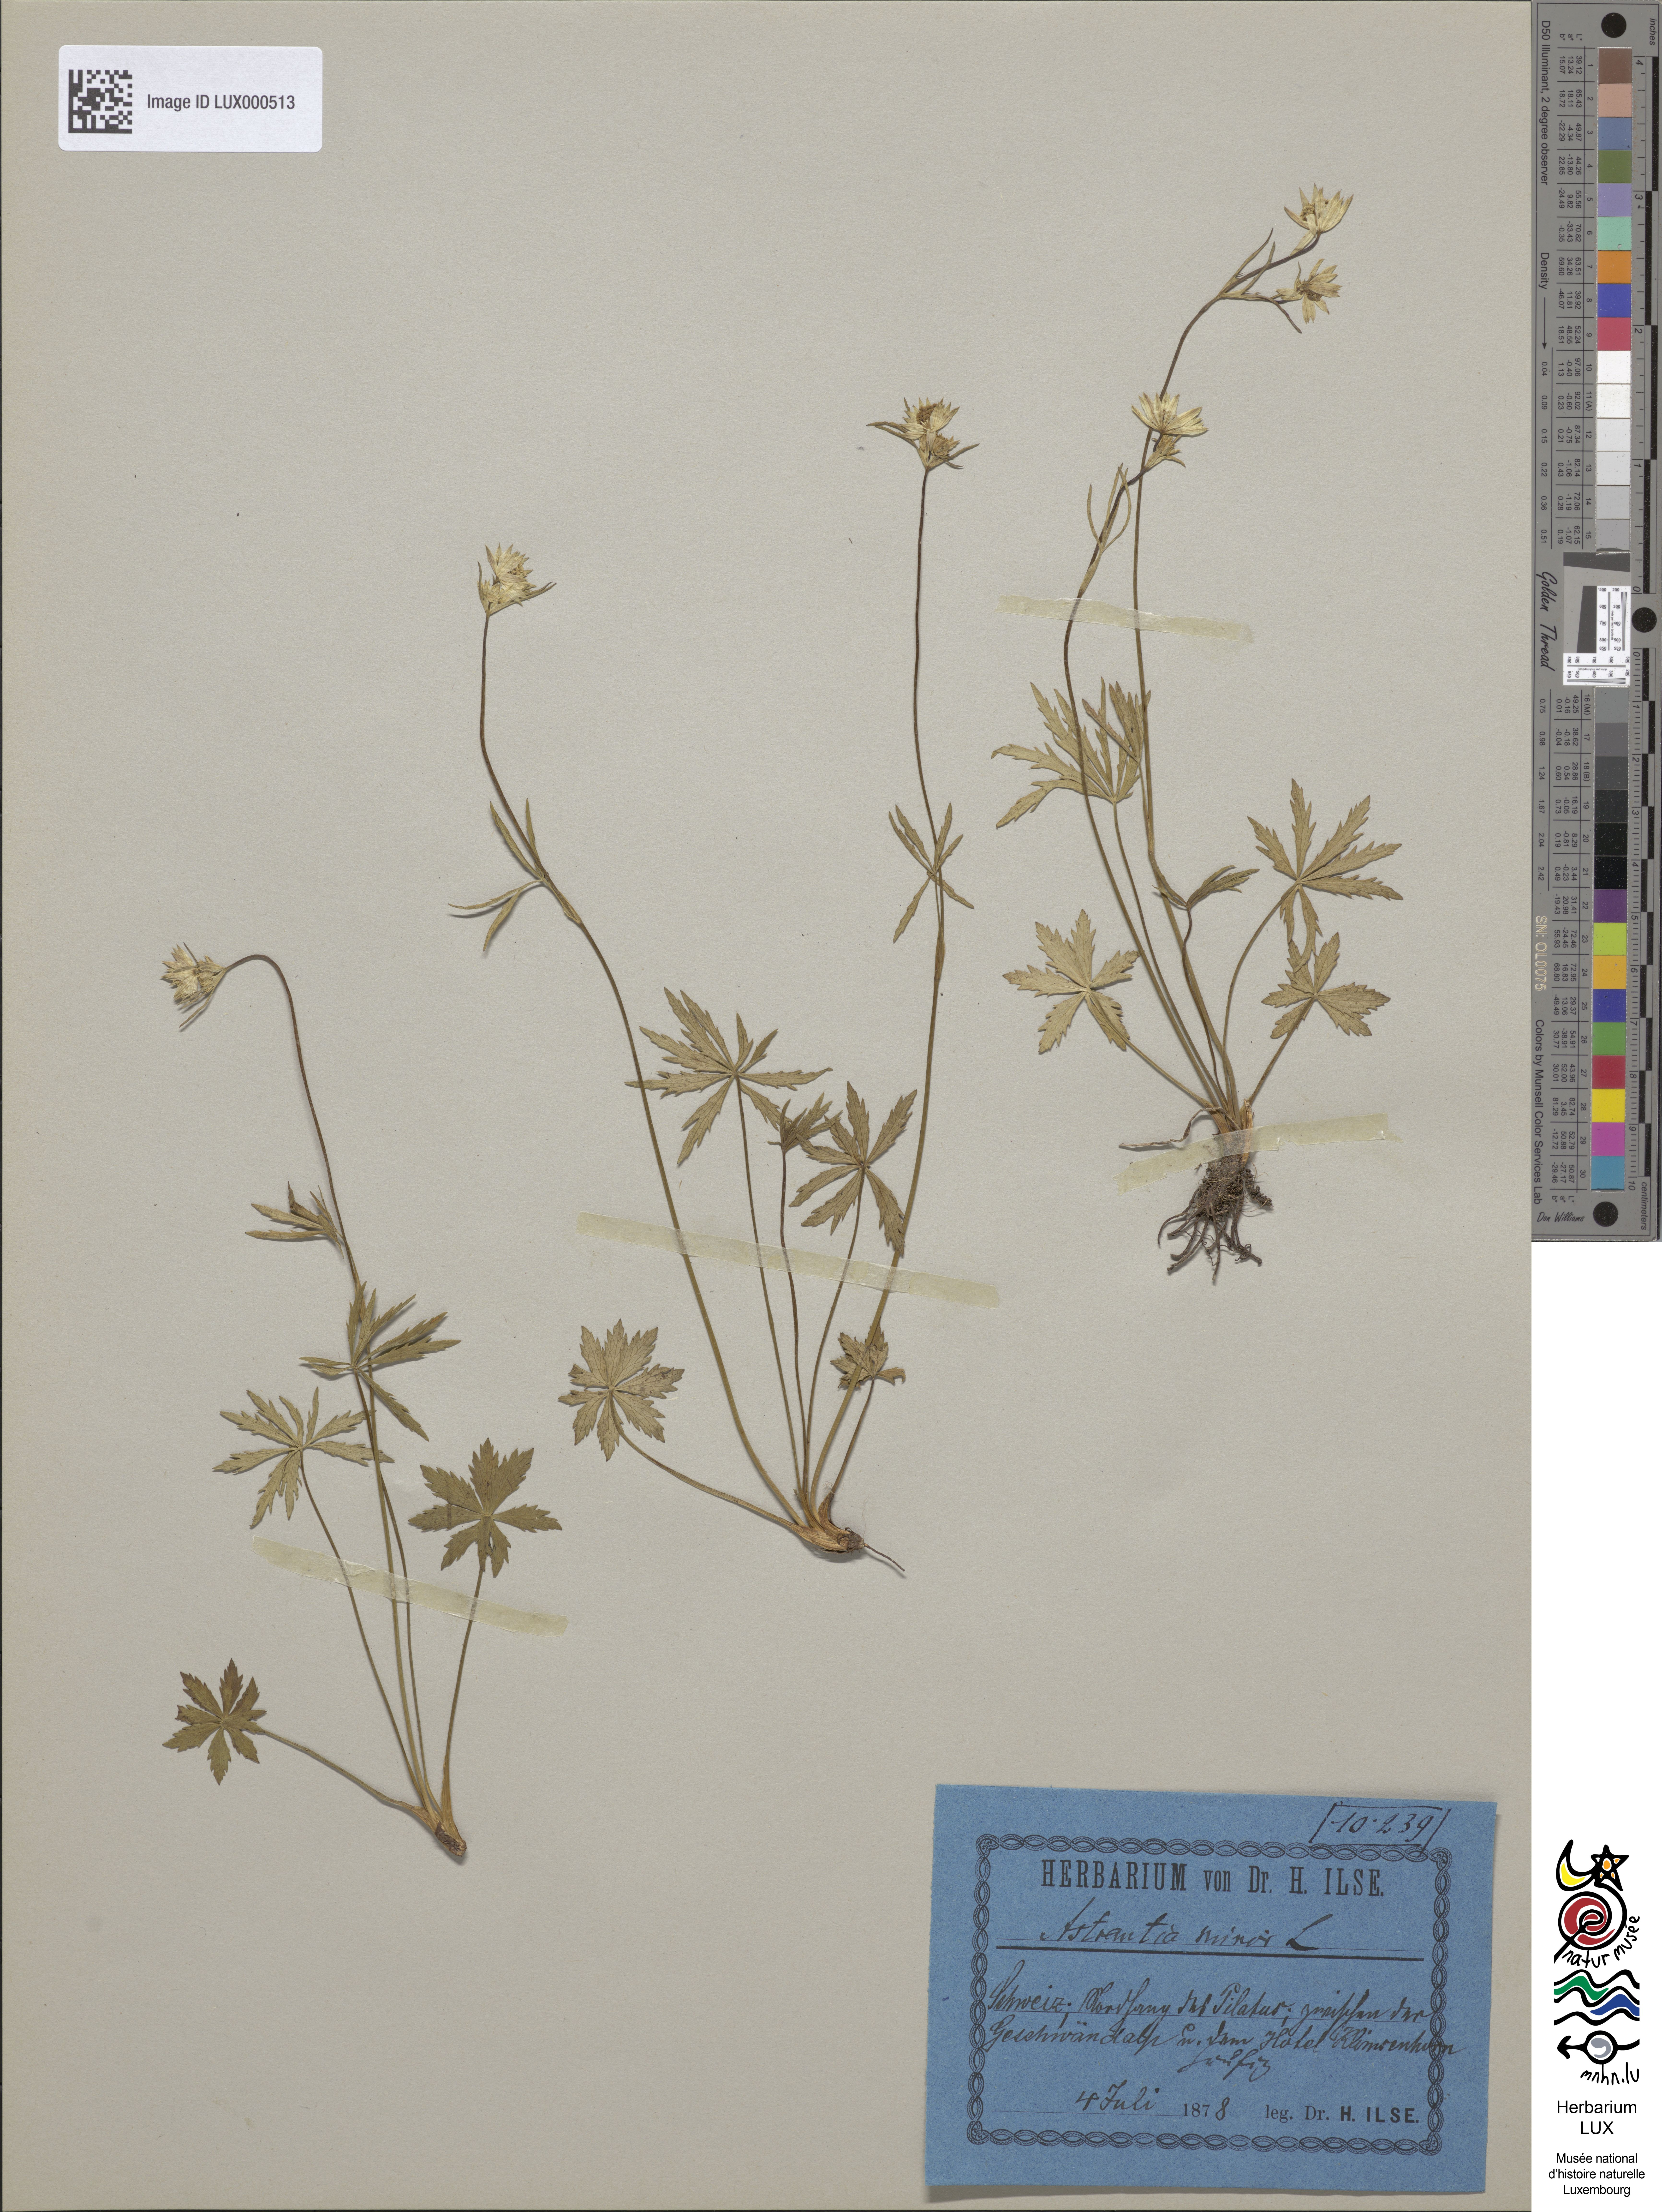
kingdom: Plantae
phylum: Tracheophyta
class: Magnoliopsida
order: Apiales
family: Apiaceae
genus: Astrantia
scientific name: Astrantia minor
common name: Lesser masterwort
